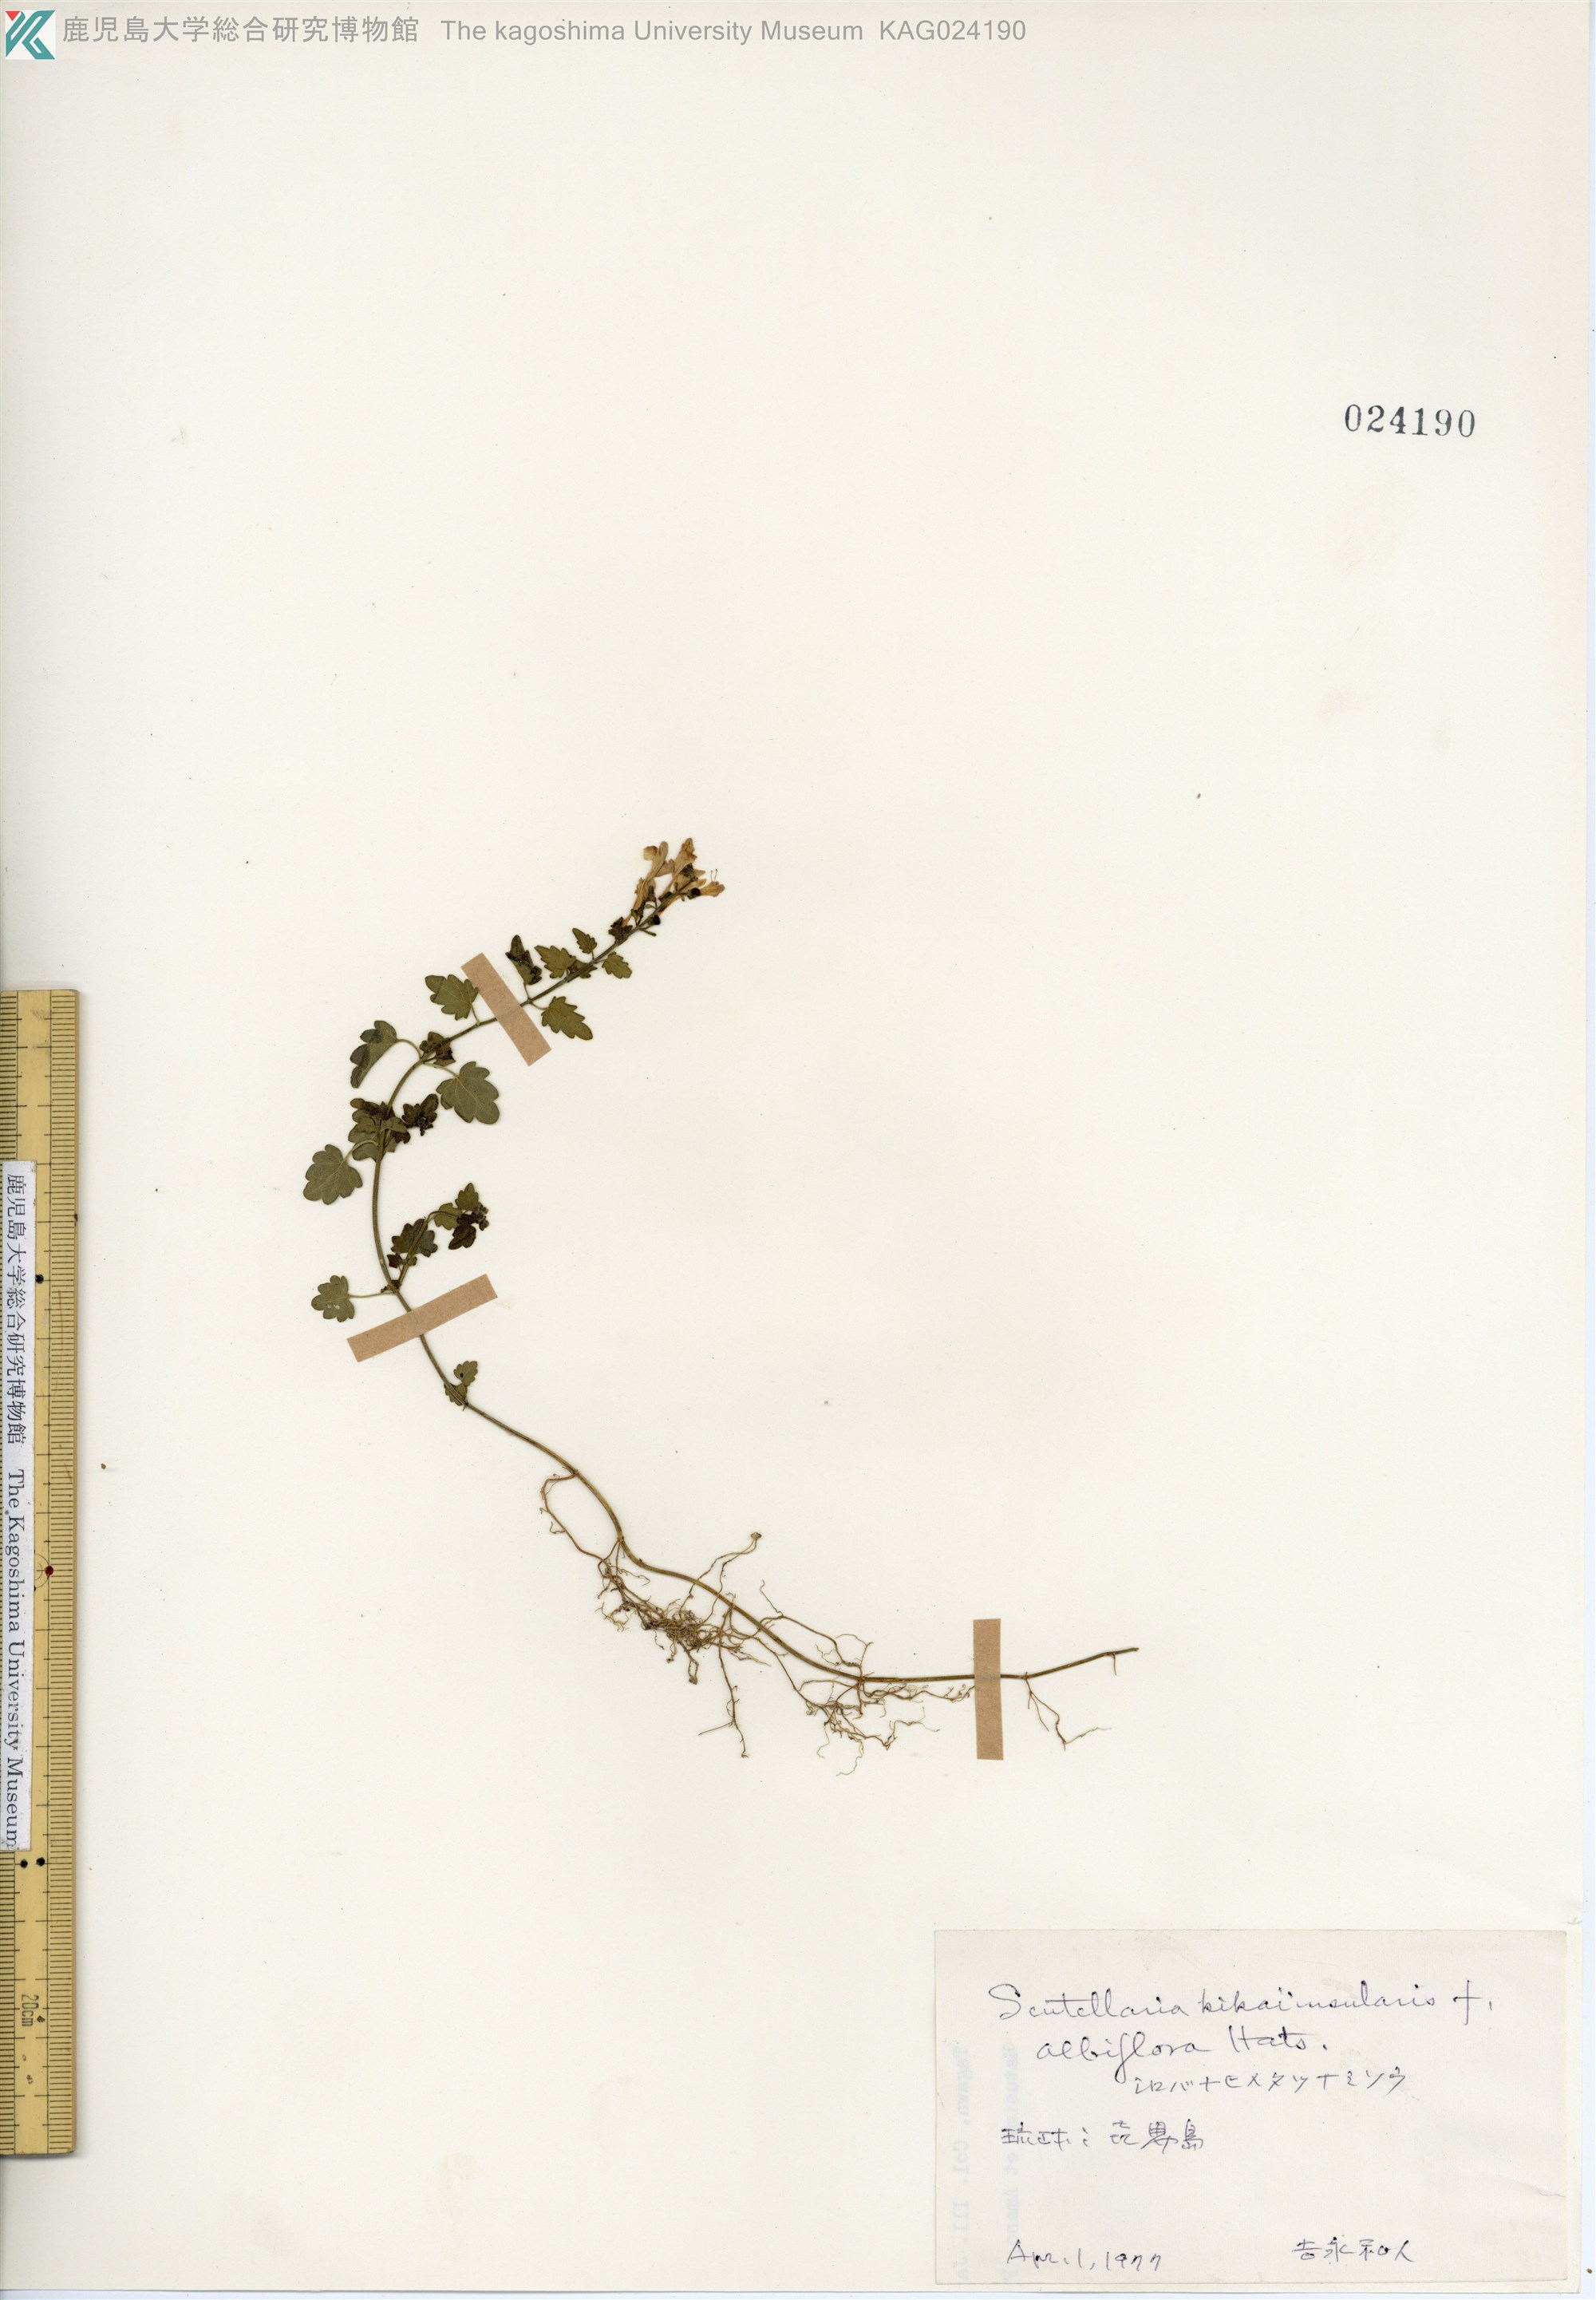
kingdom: Plantae
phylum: Tracheophyta
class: Magnoliopsida
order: Lamiales
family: Lamiaceae
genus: Scutellaria
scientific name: Scutellaria kikai-insularis
